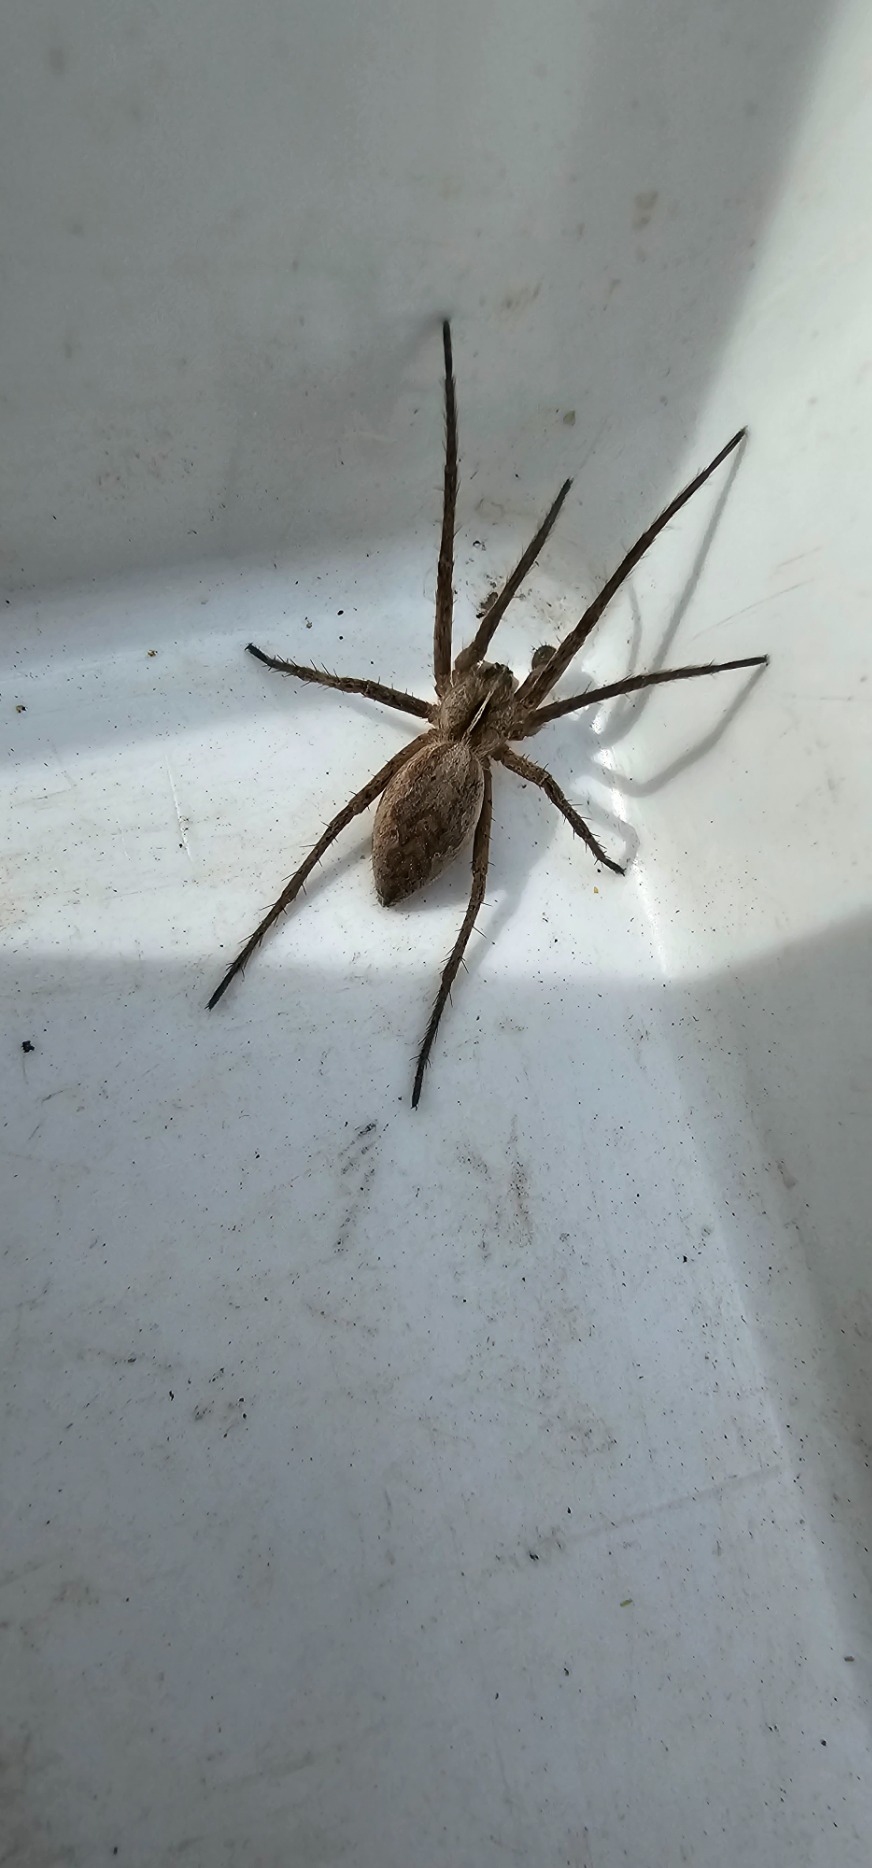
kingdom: Animalia
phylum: Arthropoda
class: Arachnida
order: Araneae
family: Pisauridae
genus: Pisaura
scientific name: Pisaura mirabilis
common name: Almindelig rovedderkop
